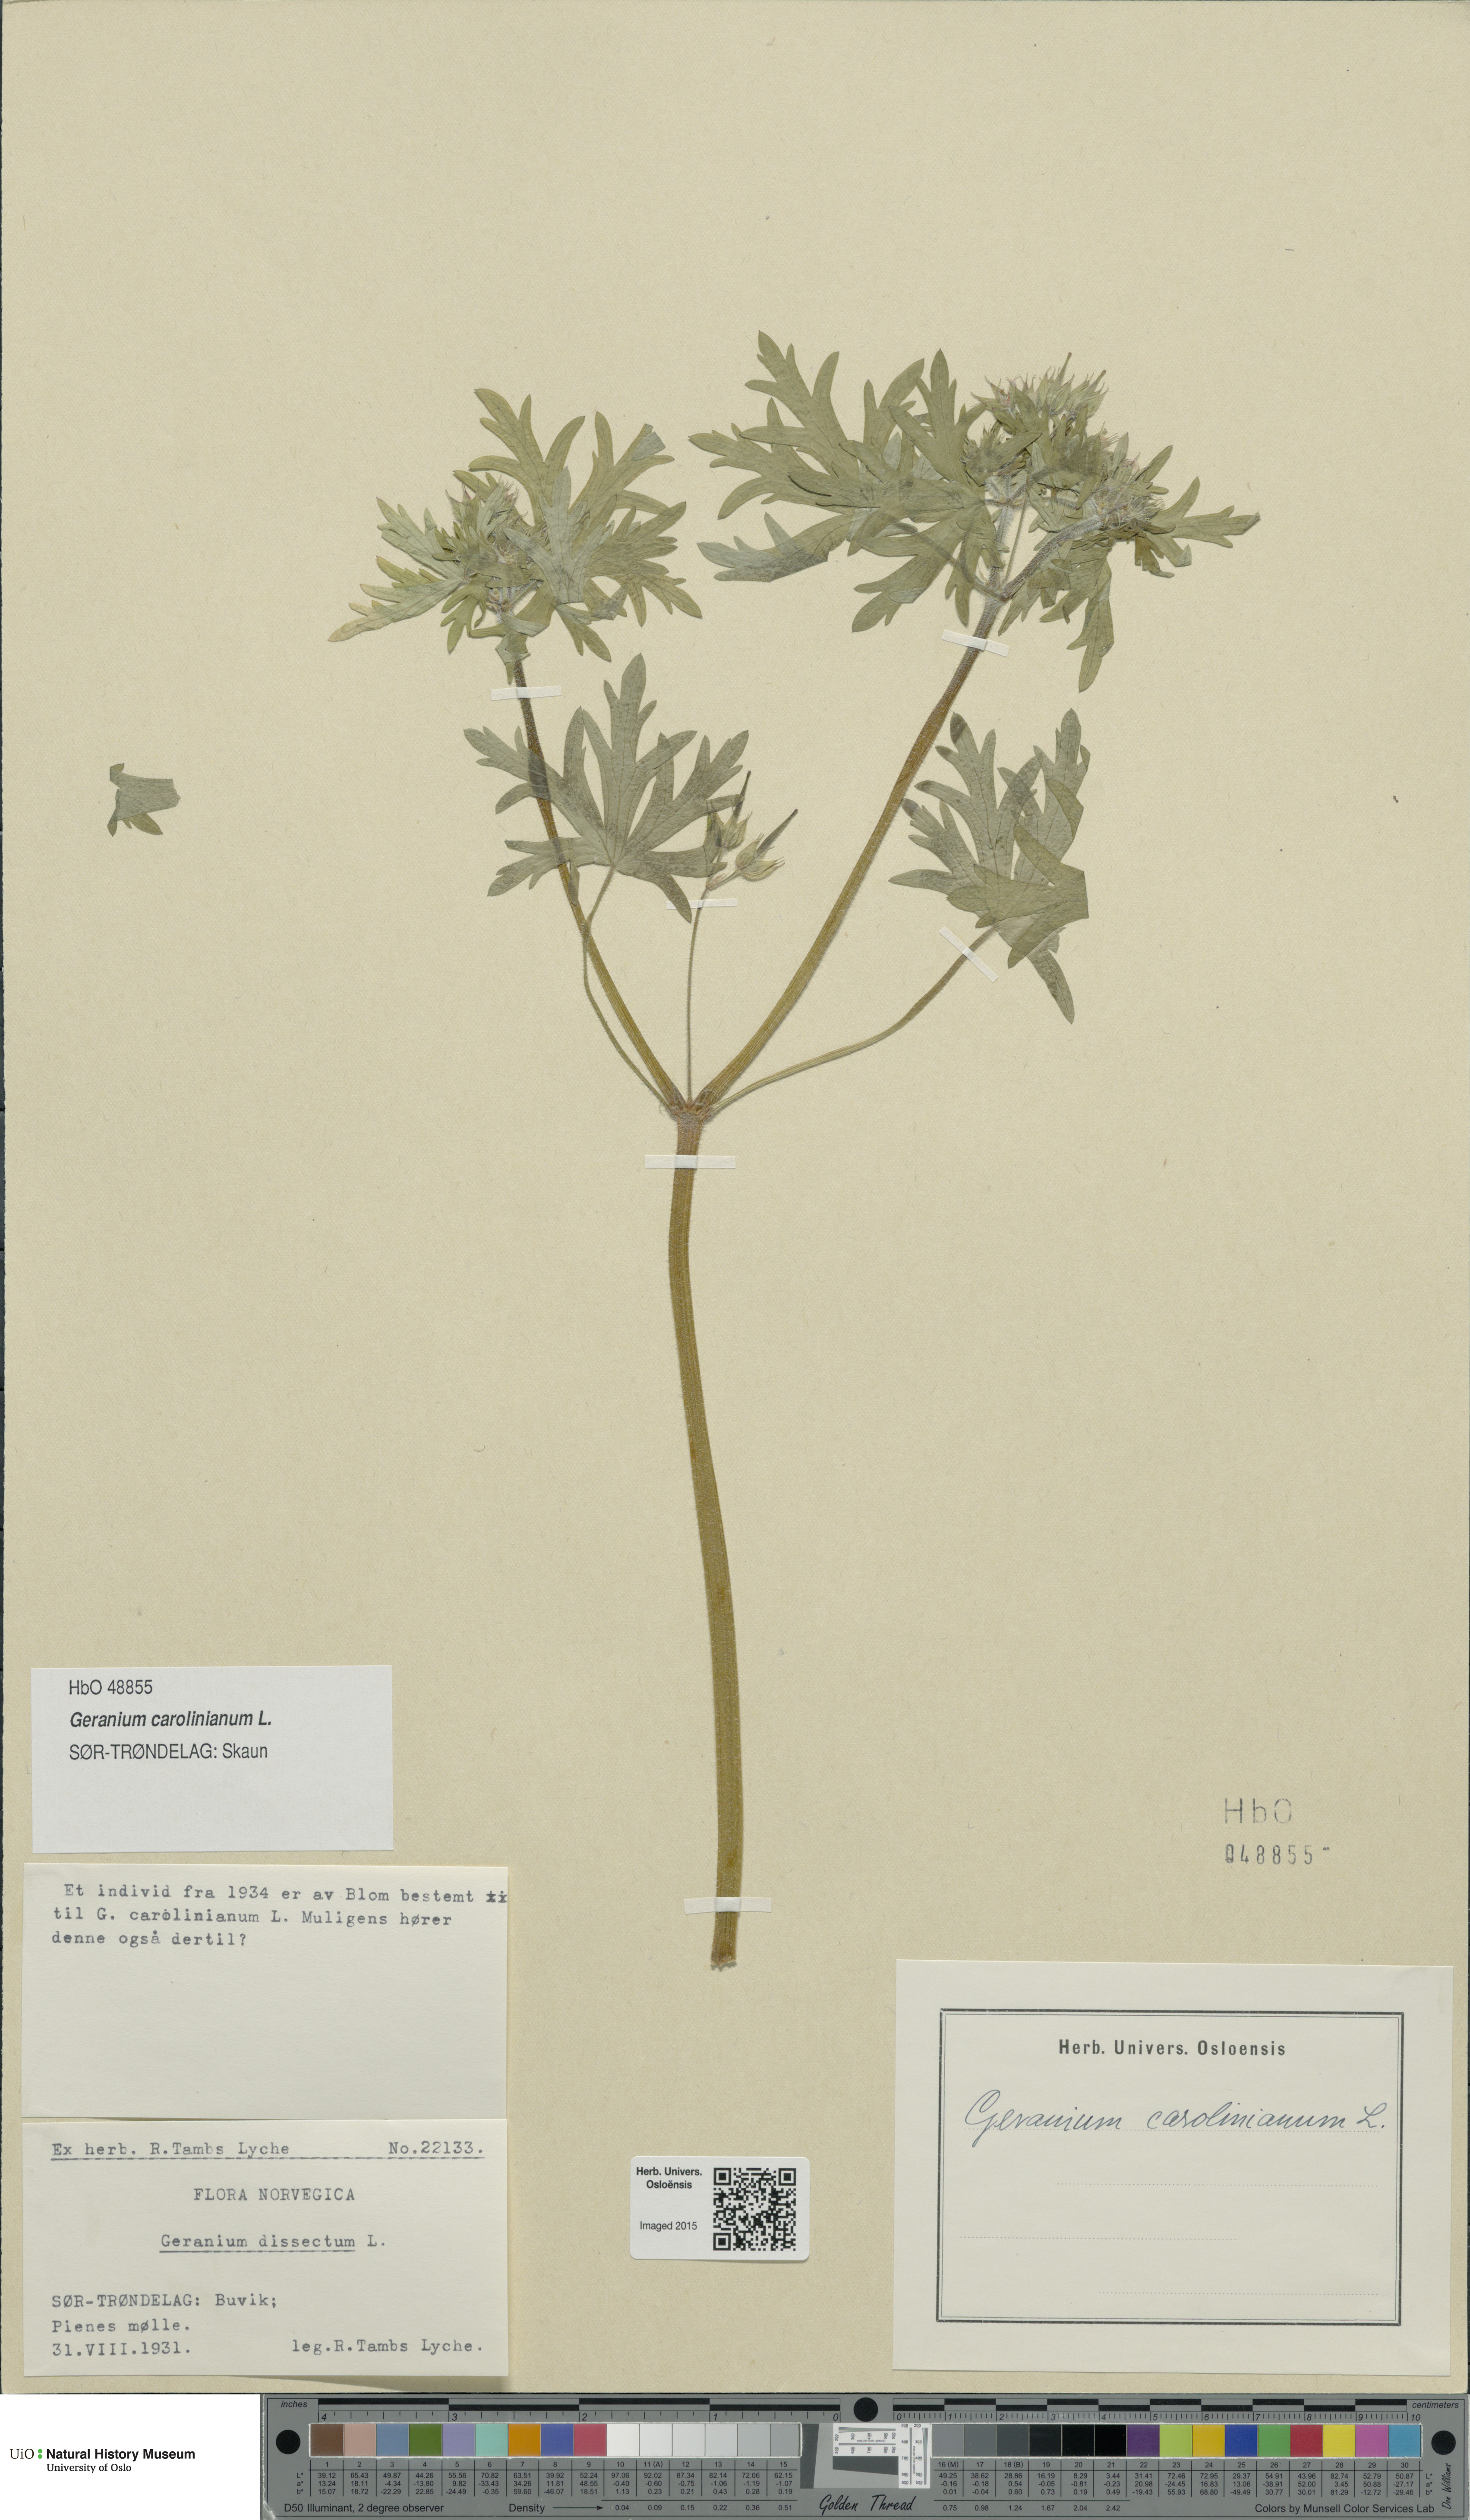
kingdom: Plantae
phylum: Tracheophyta
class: Magnoliopsida
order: Geraniales
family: Geraniaceae
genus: Geranium
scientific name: Geranium carolinianum
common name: Carolina crane's-bill
